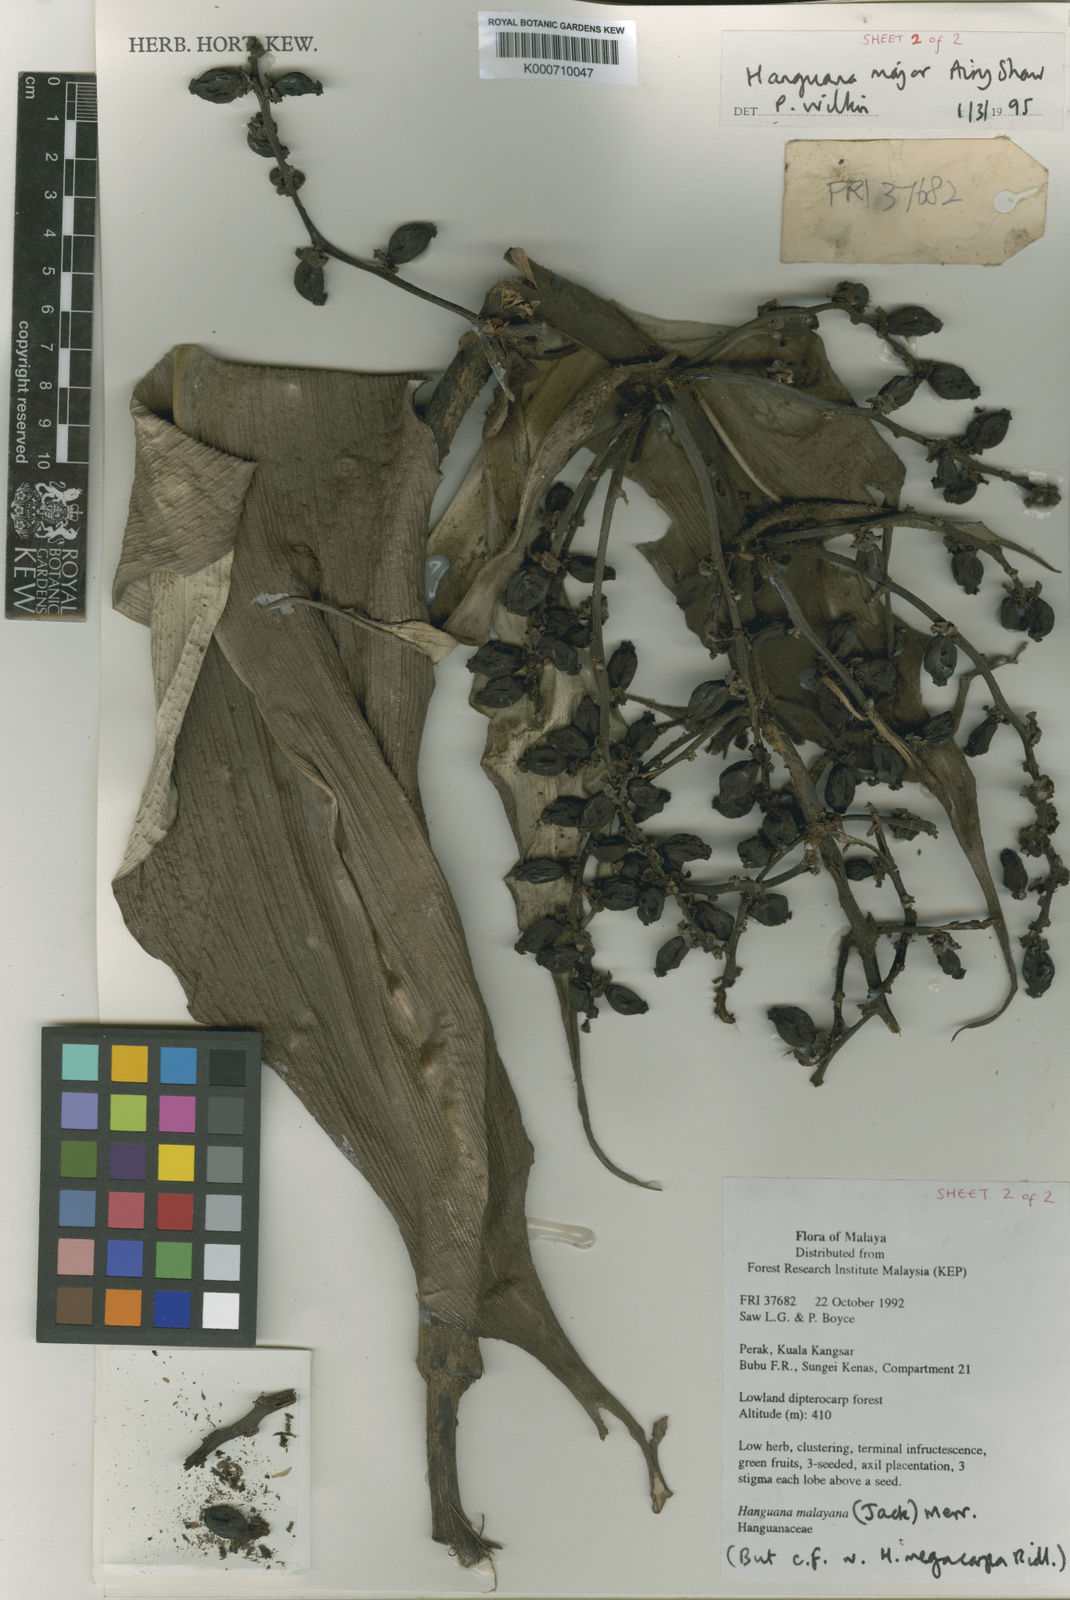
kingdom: Plantae
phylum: Tracheophyta
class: Liliopsida
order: Commelinales
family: Hanguanaceae
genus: Hanguana
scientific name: Hanguana major
